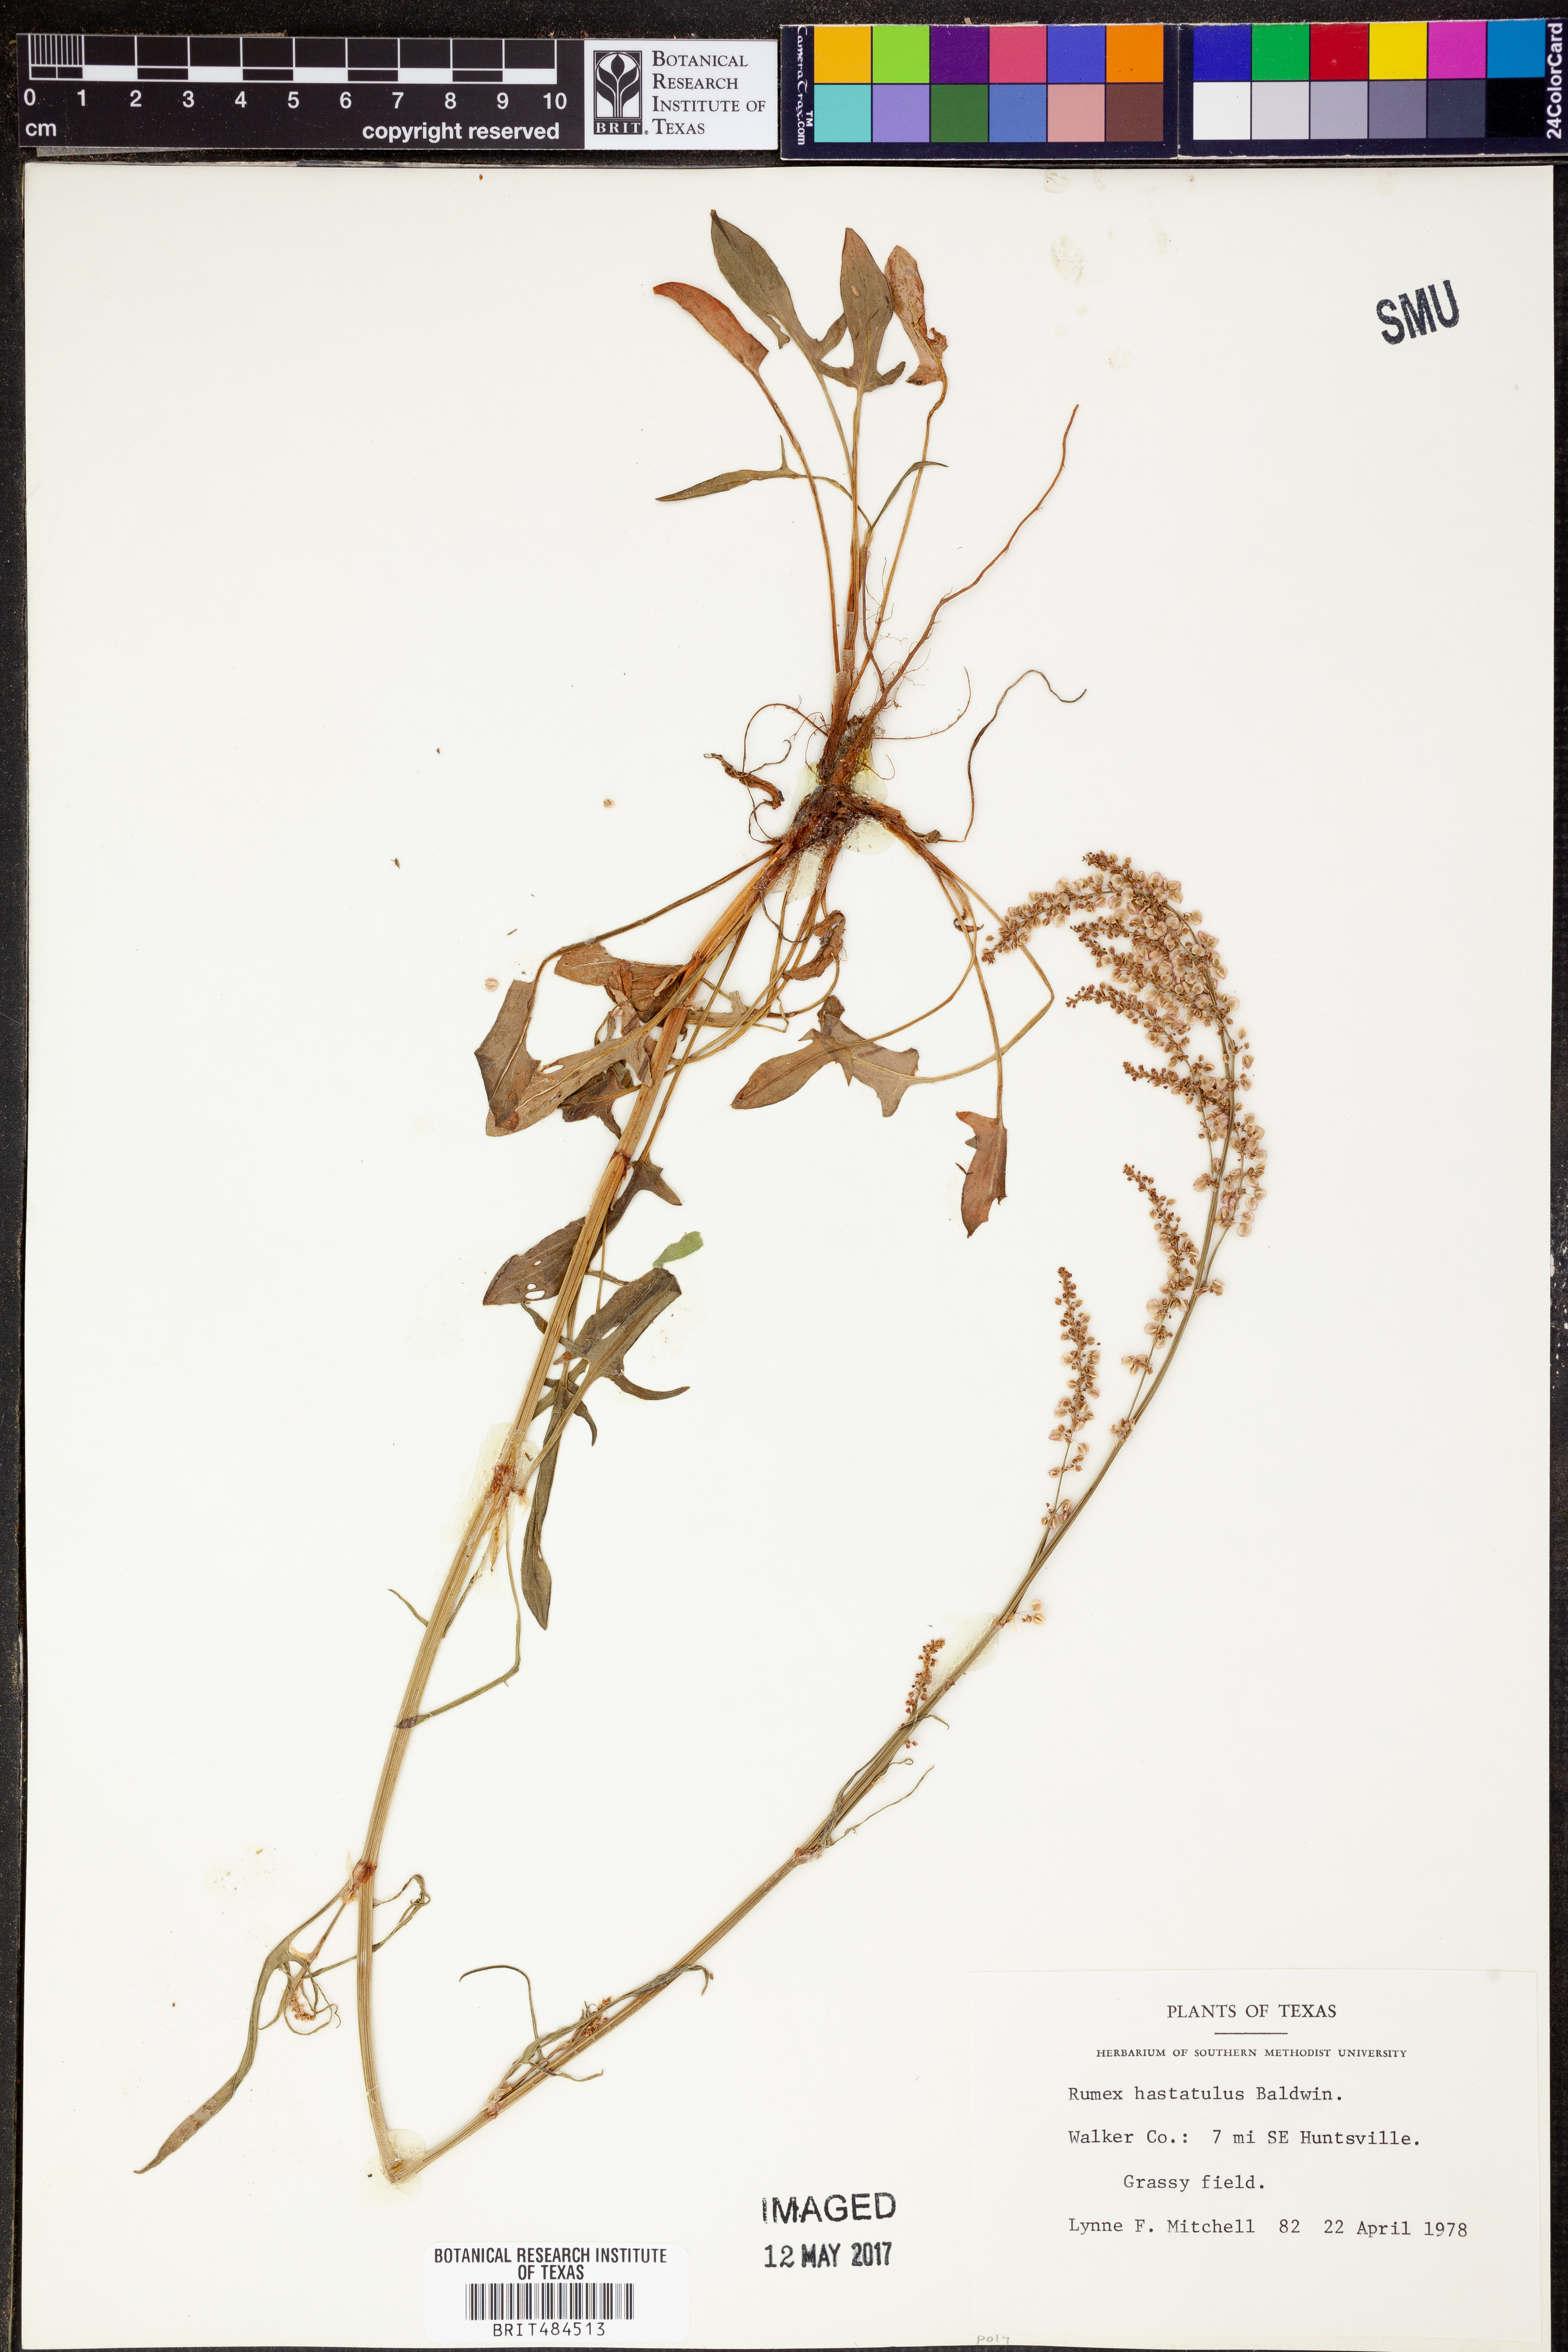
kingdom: Plantae
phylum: Tracheophyta
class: Magnoliopsida
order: Caryophyllales
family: Polygonaceae
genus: Rumex
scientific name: Rumex hastatulus
